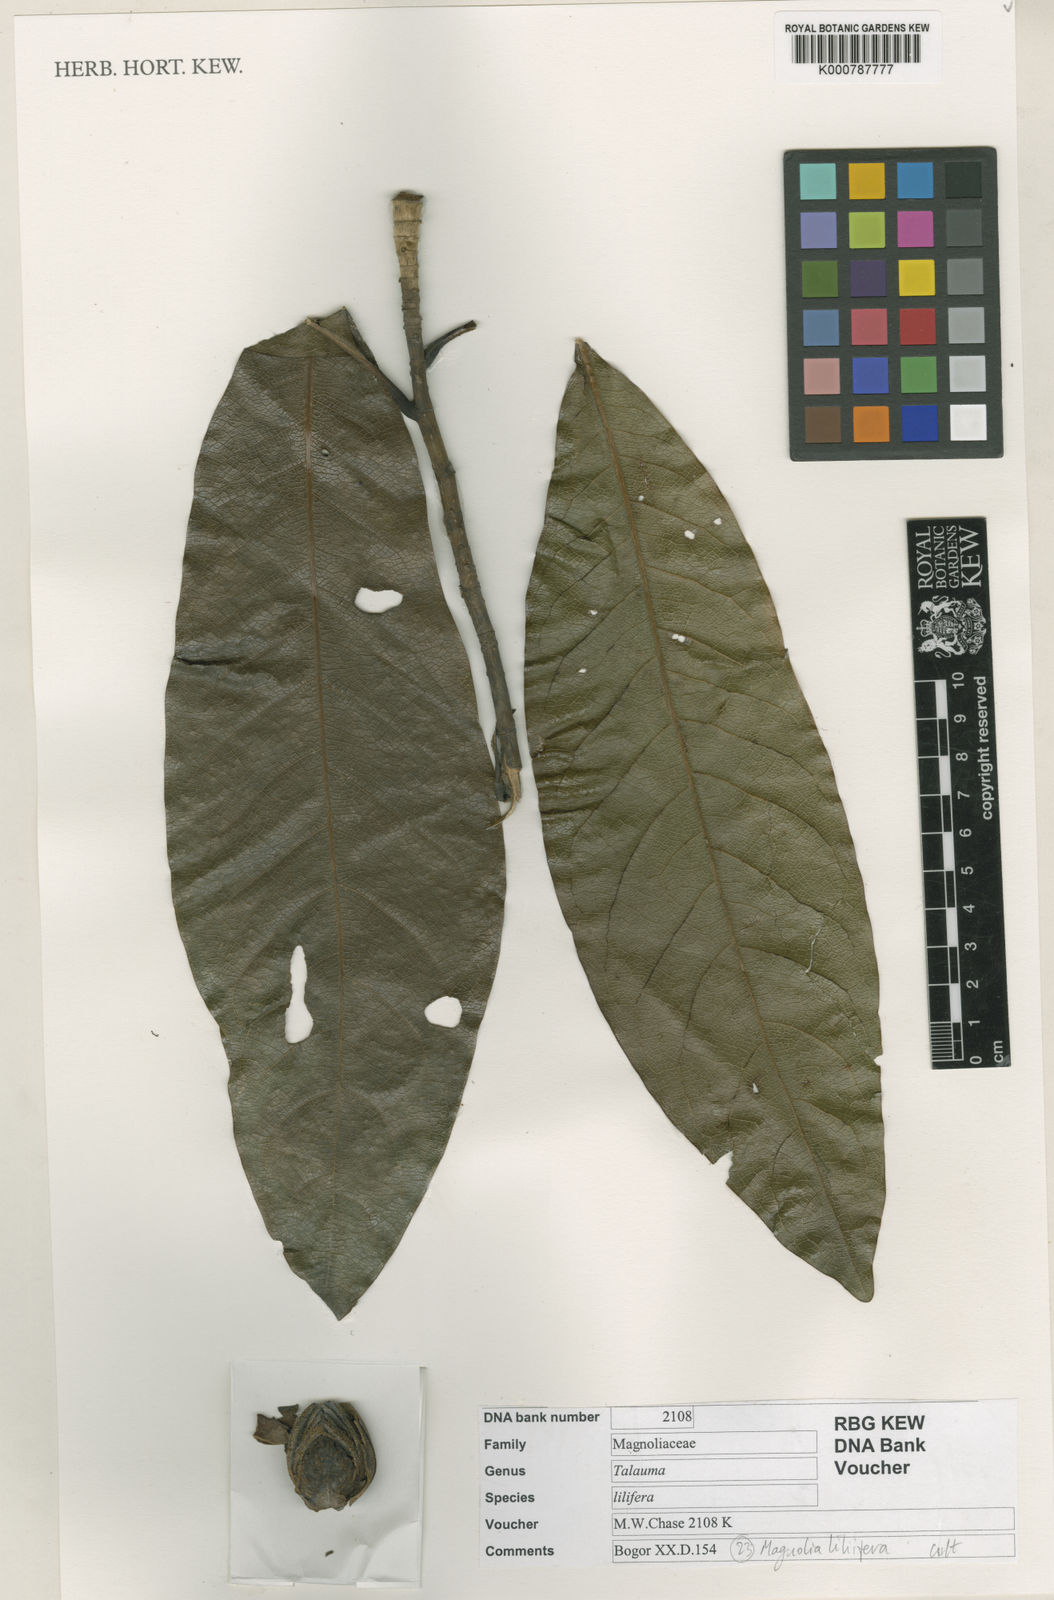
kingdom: Plantae
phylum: Tracheophyta
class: Magnoliopsida
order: Magnoliales
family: Magnoliaceae
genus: Magnolia
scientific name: Magnolia liliifera
